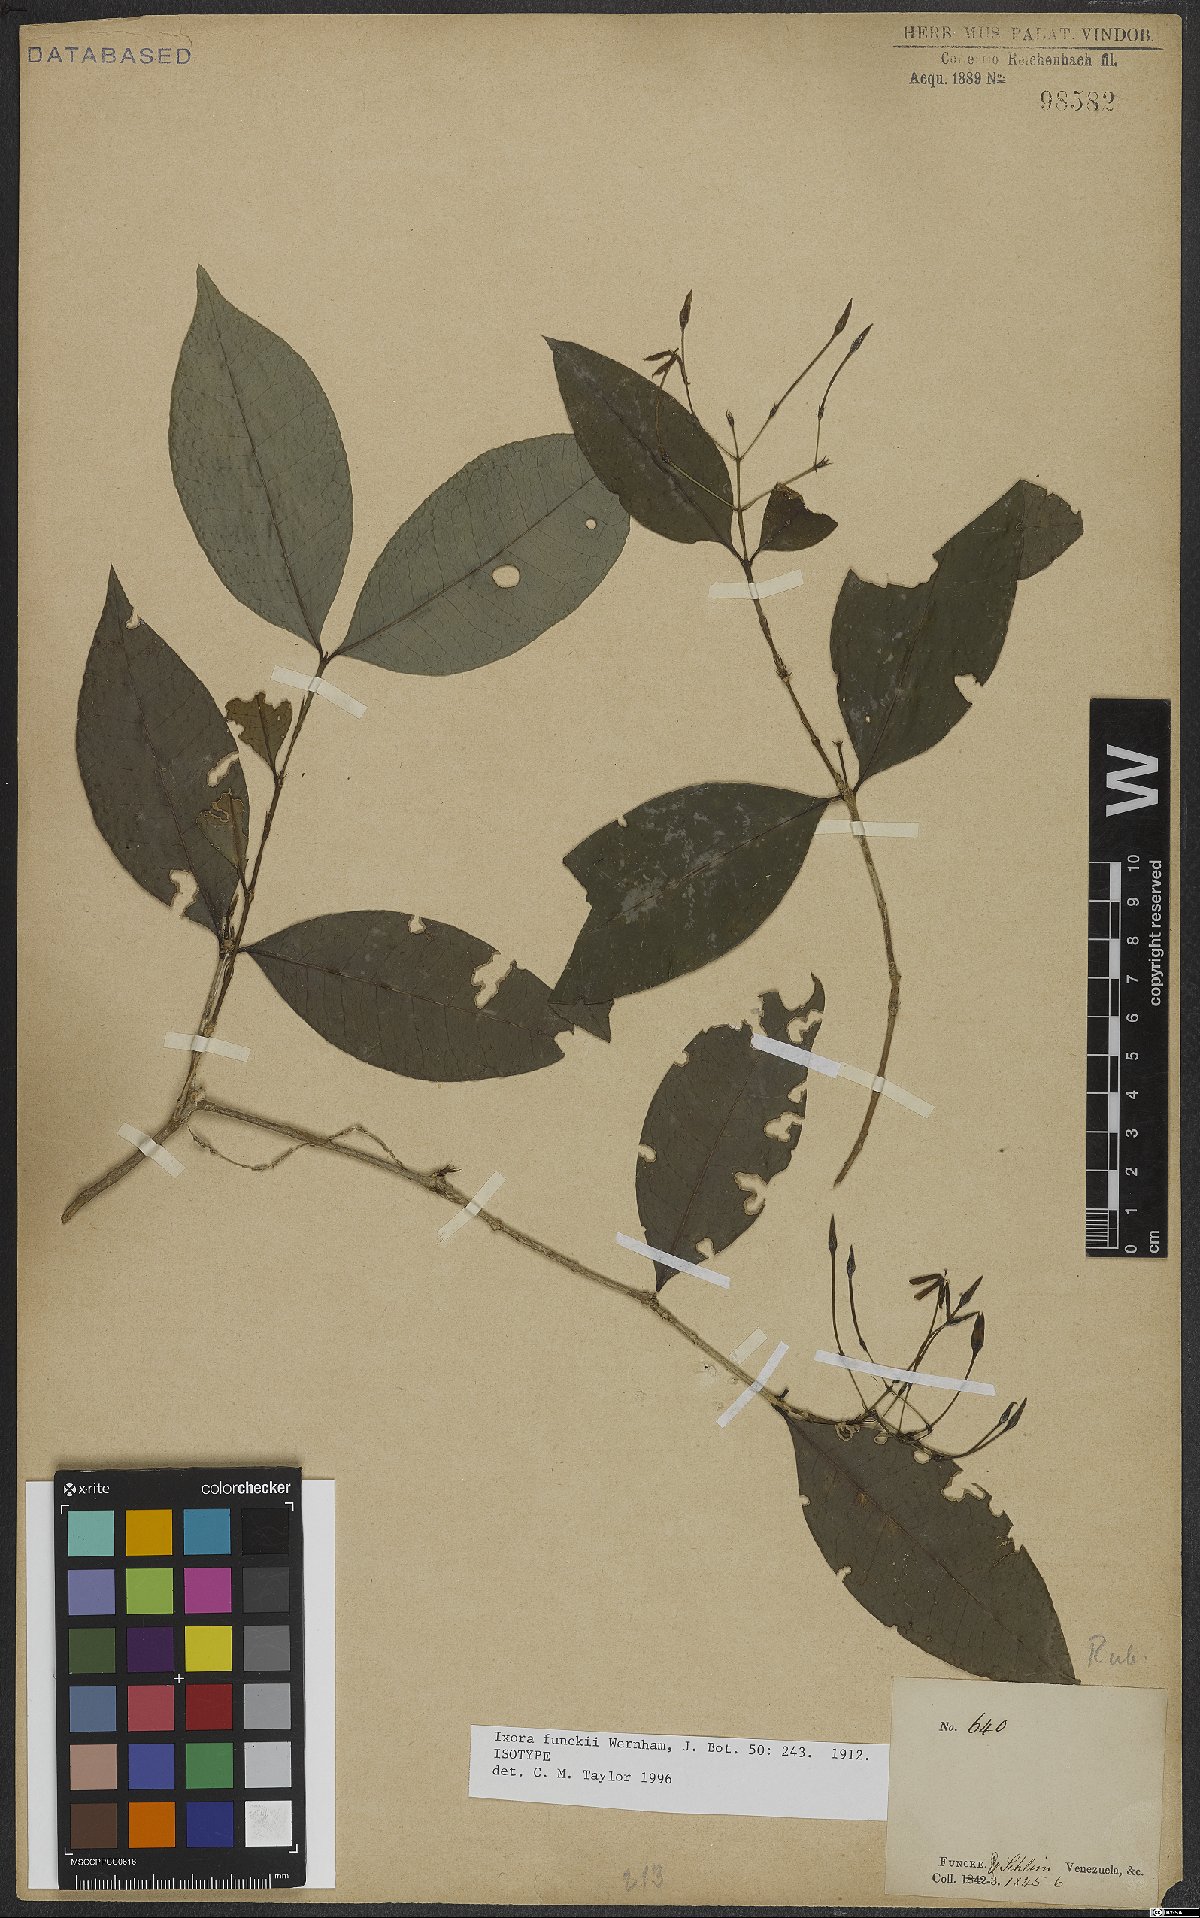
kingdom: Plantae
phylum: Tracheophyta
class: Magnoliopsida
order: Gentianales
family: Rubiaceae
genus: Ixora
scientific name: Ixora funckii
